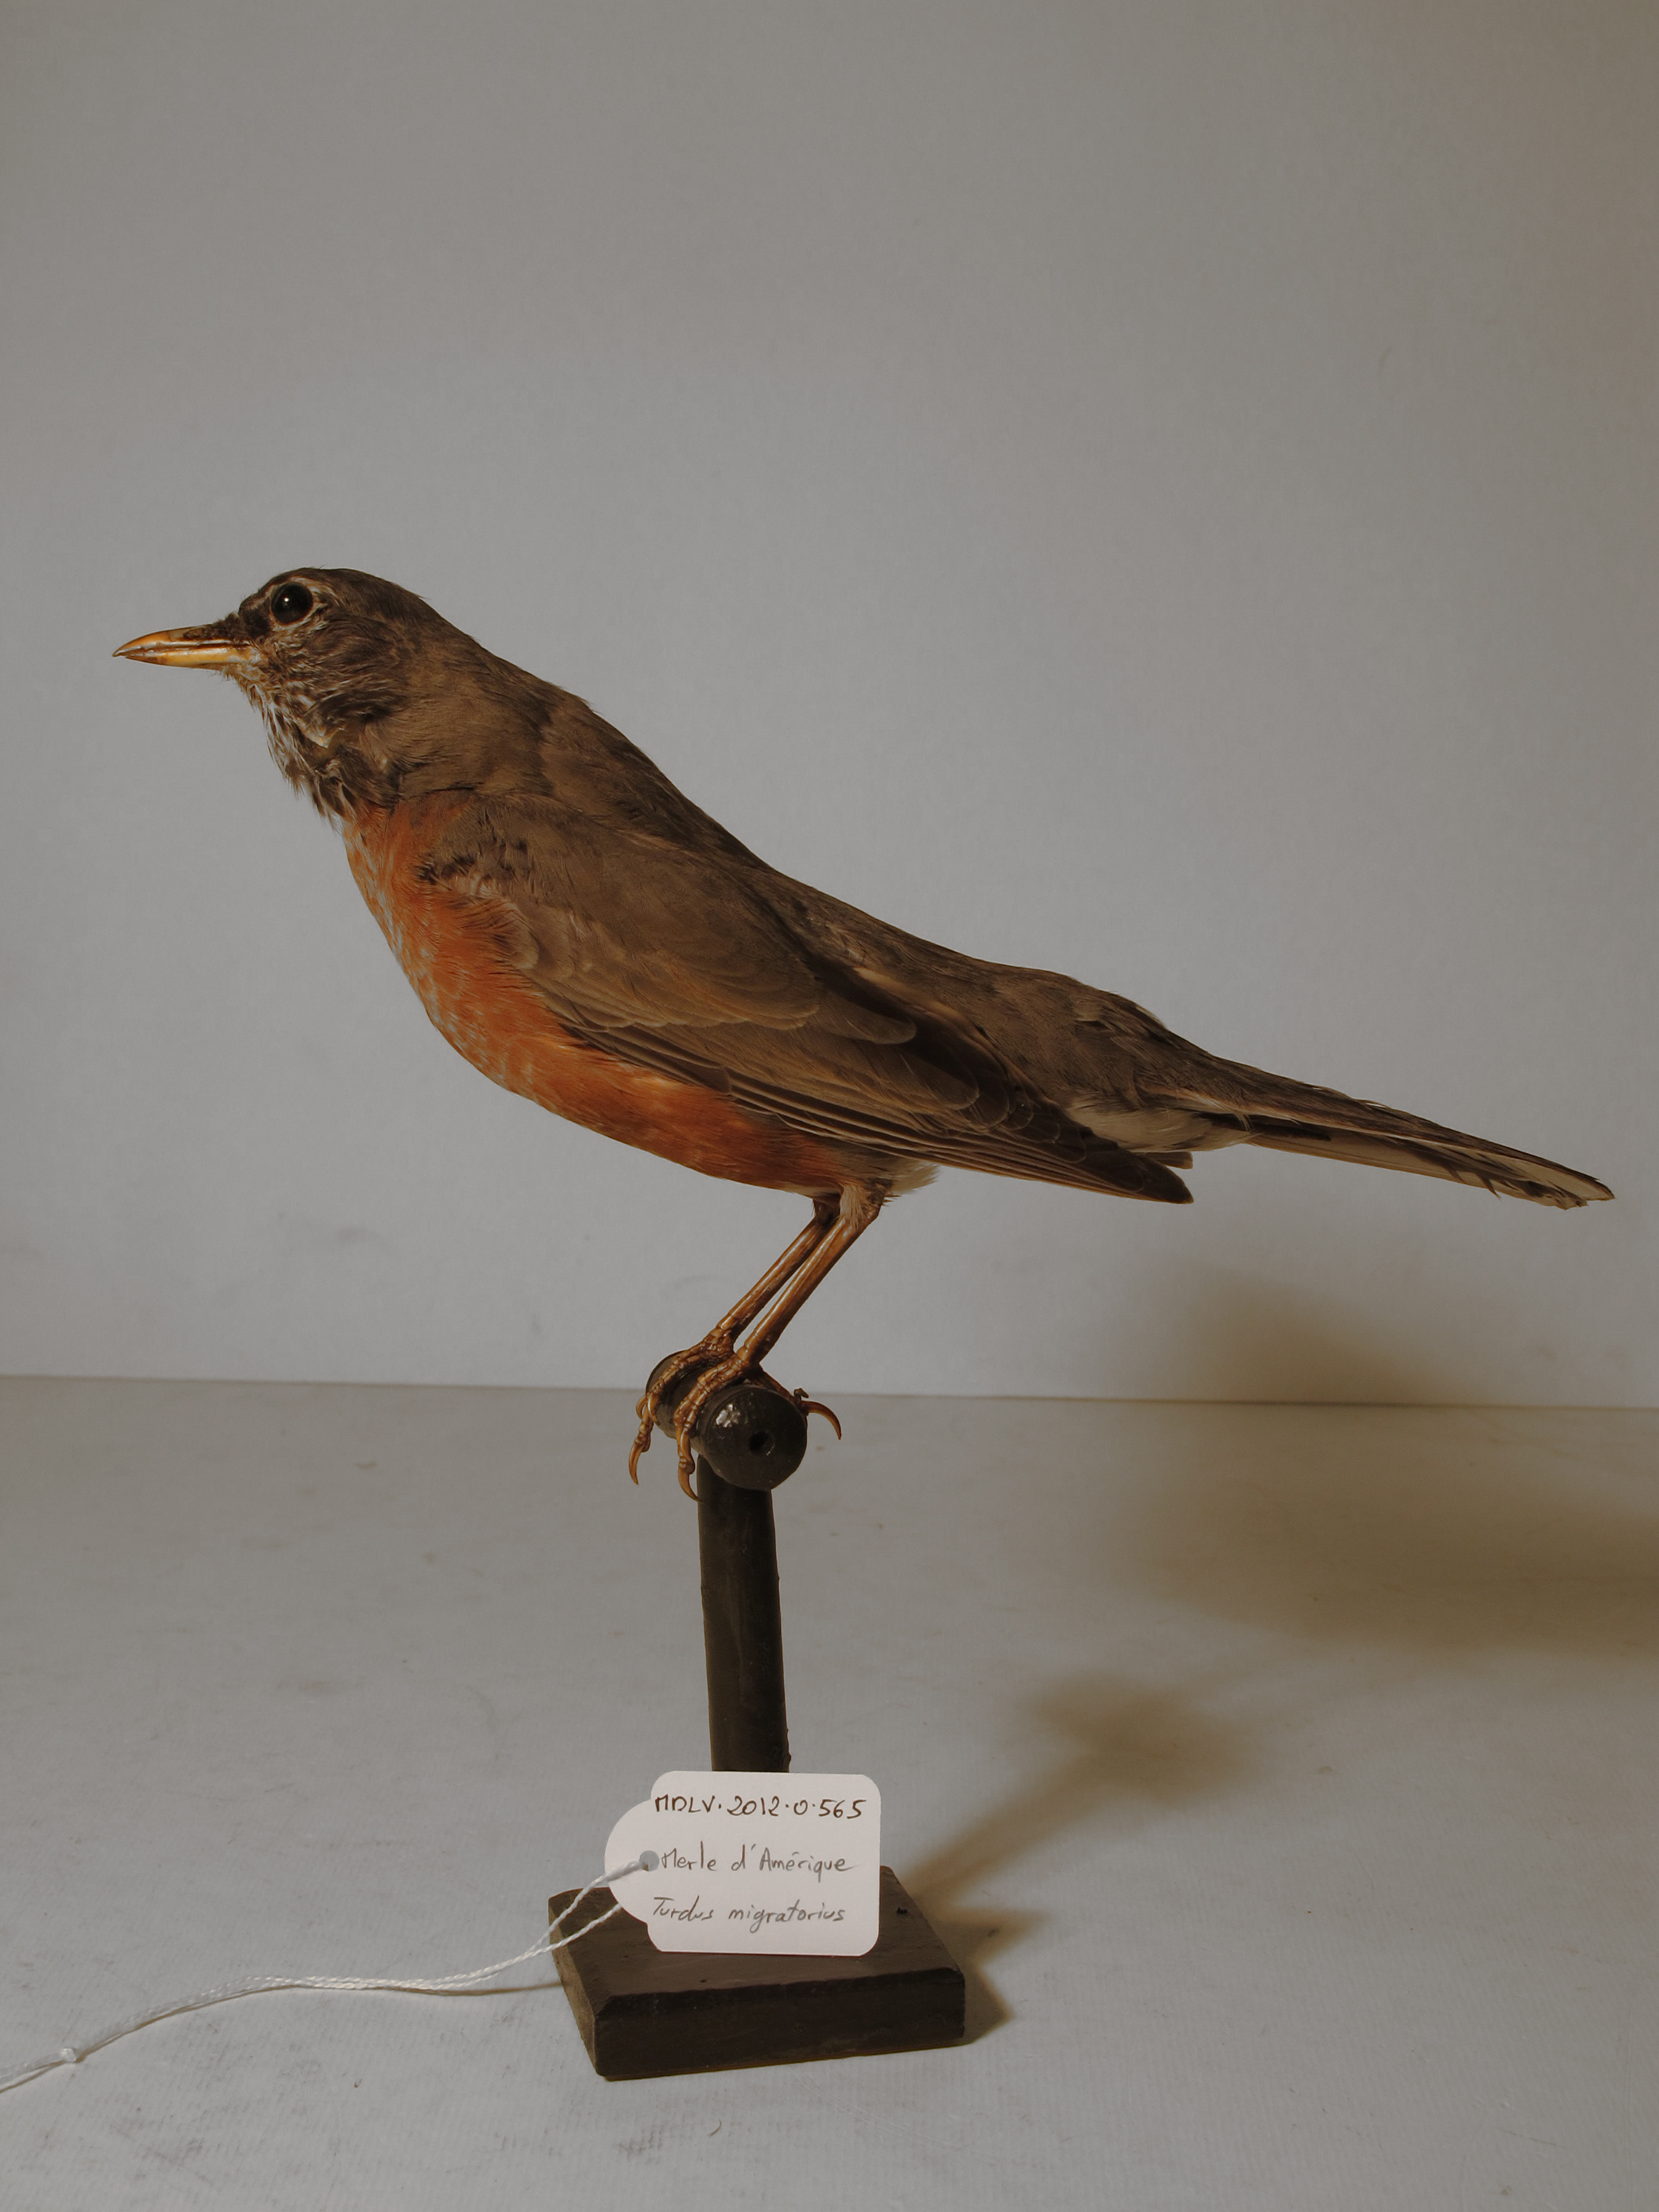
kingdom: Animalia
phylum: Chordata
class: Aves
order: Passeriformes
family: Turdidae
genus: Turdus
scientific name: Turdus migratorius
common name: American Robin
